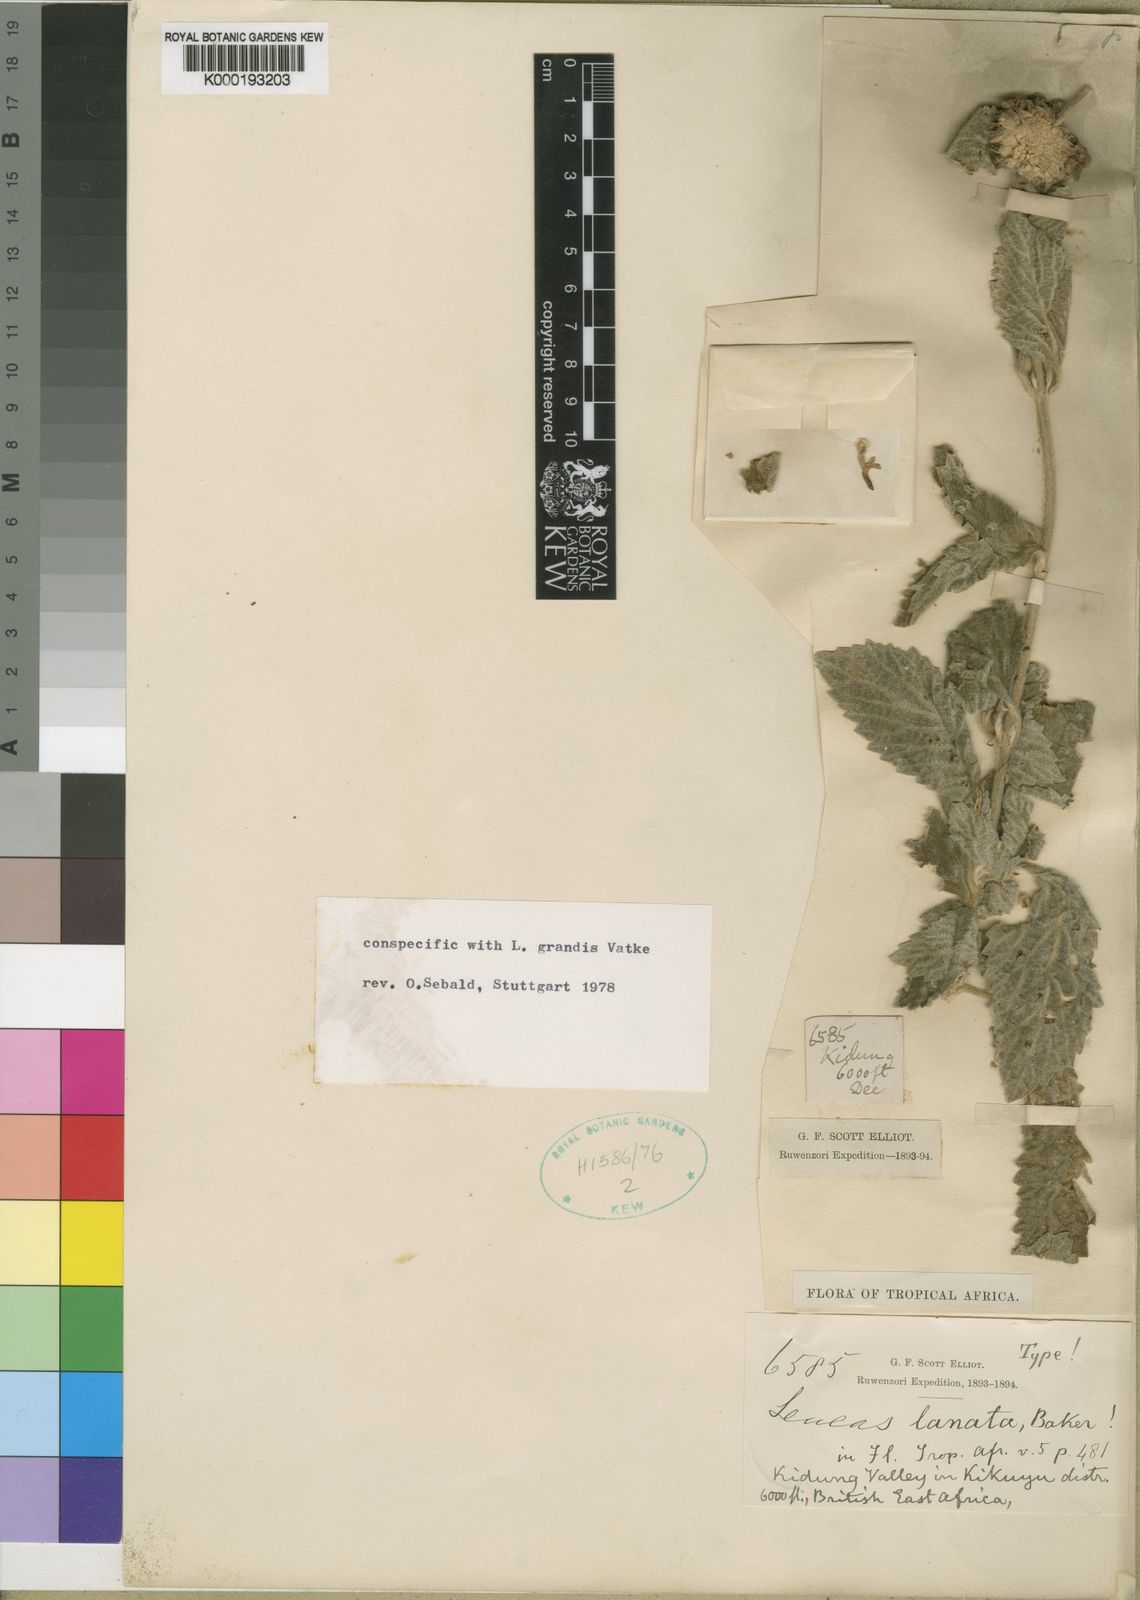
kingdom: Plantae
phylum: Tracheophyta
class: Magnoliopsida
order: Lamiales
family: Lamiaceae
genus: Leucas
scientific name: Leucas grandis
